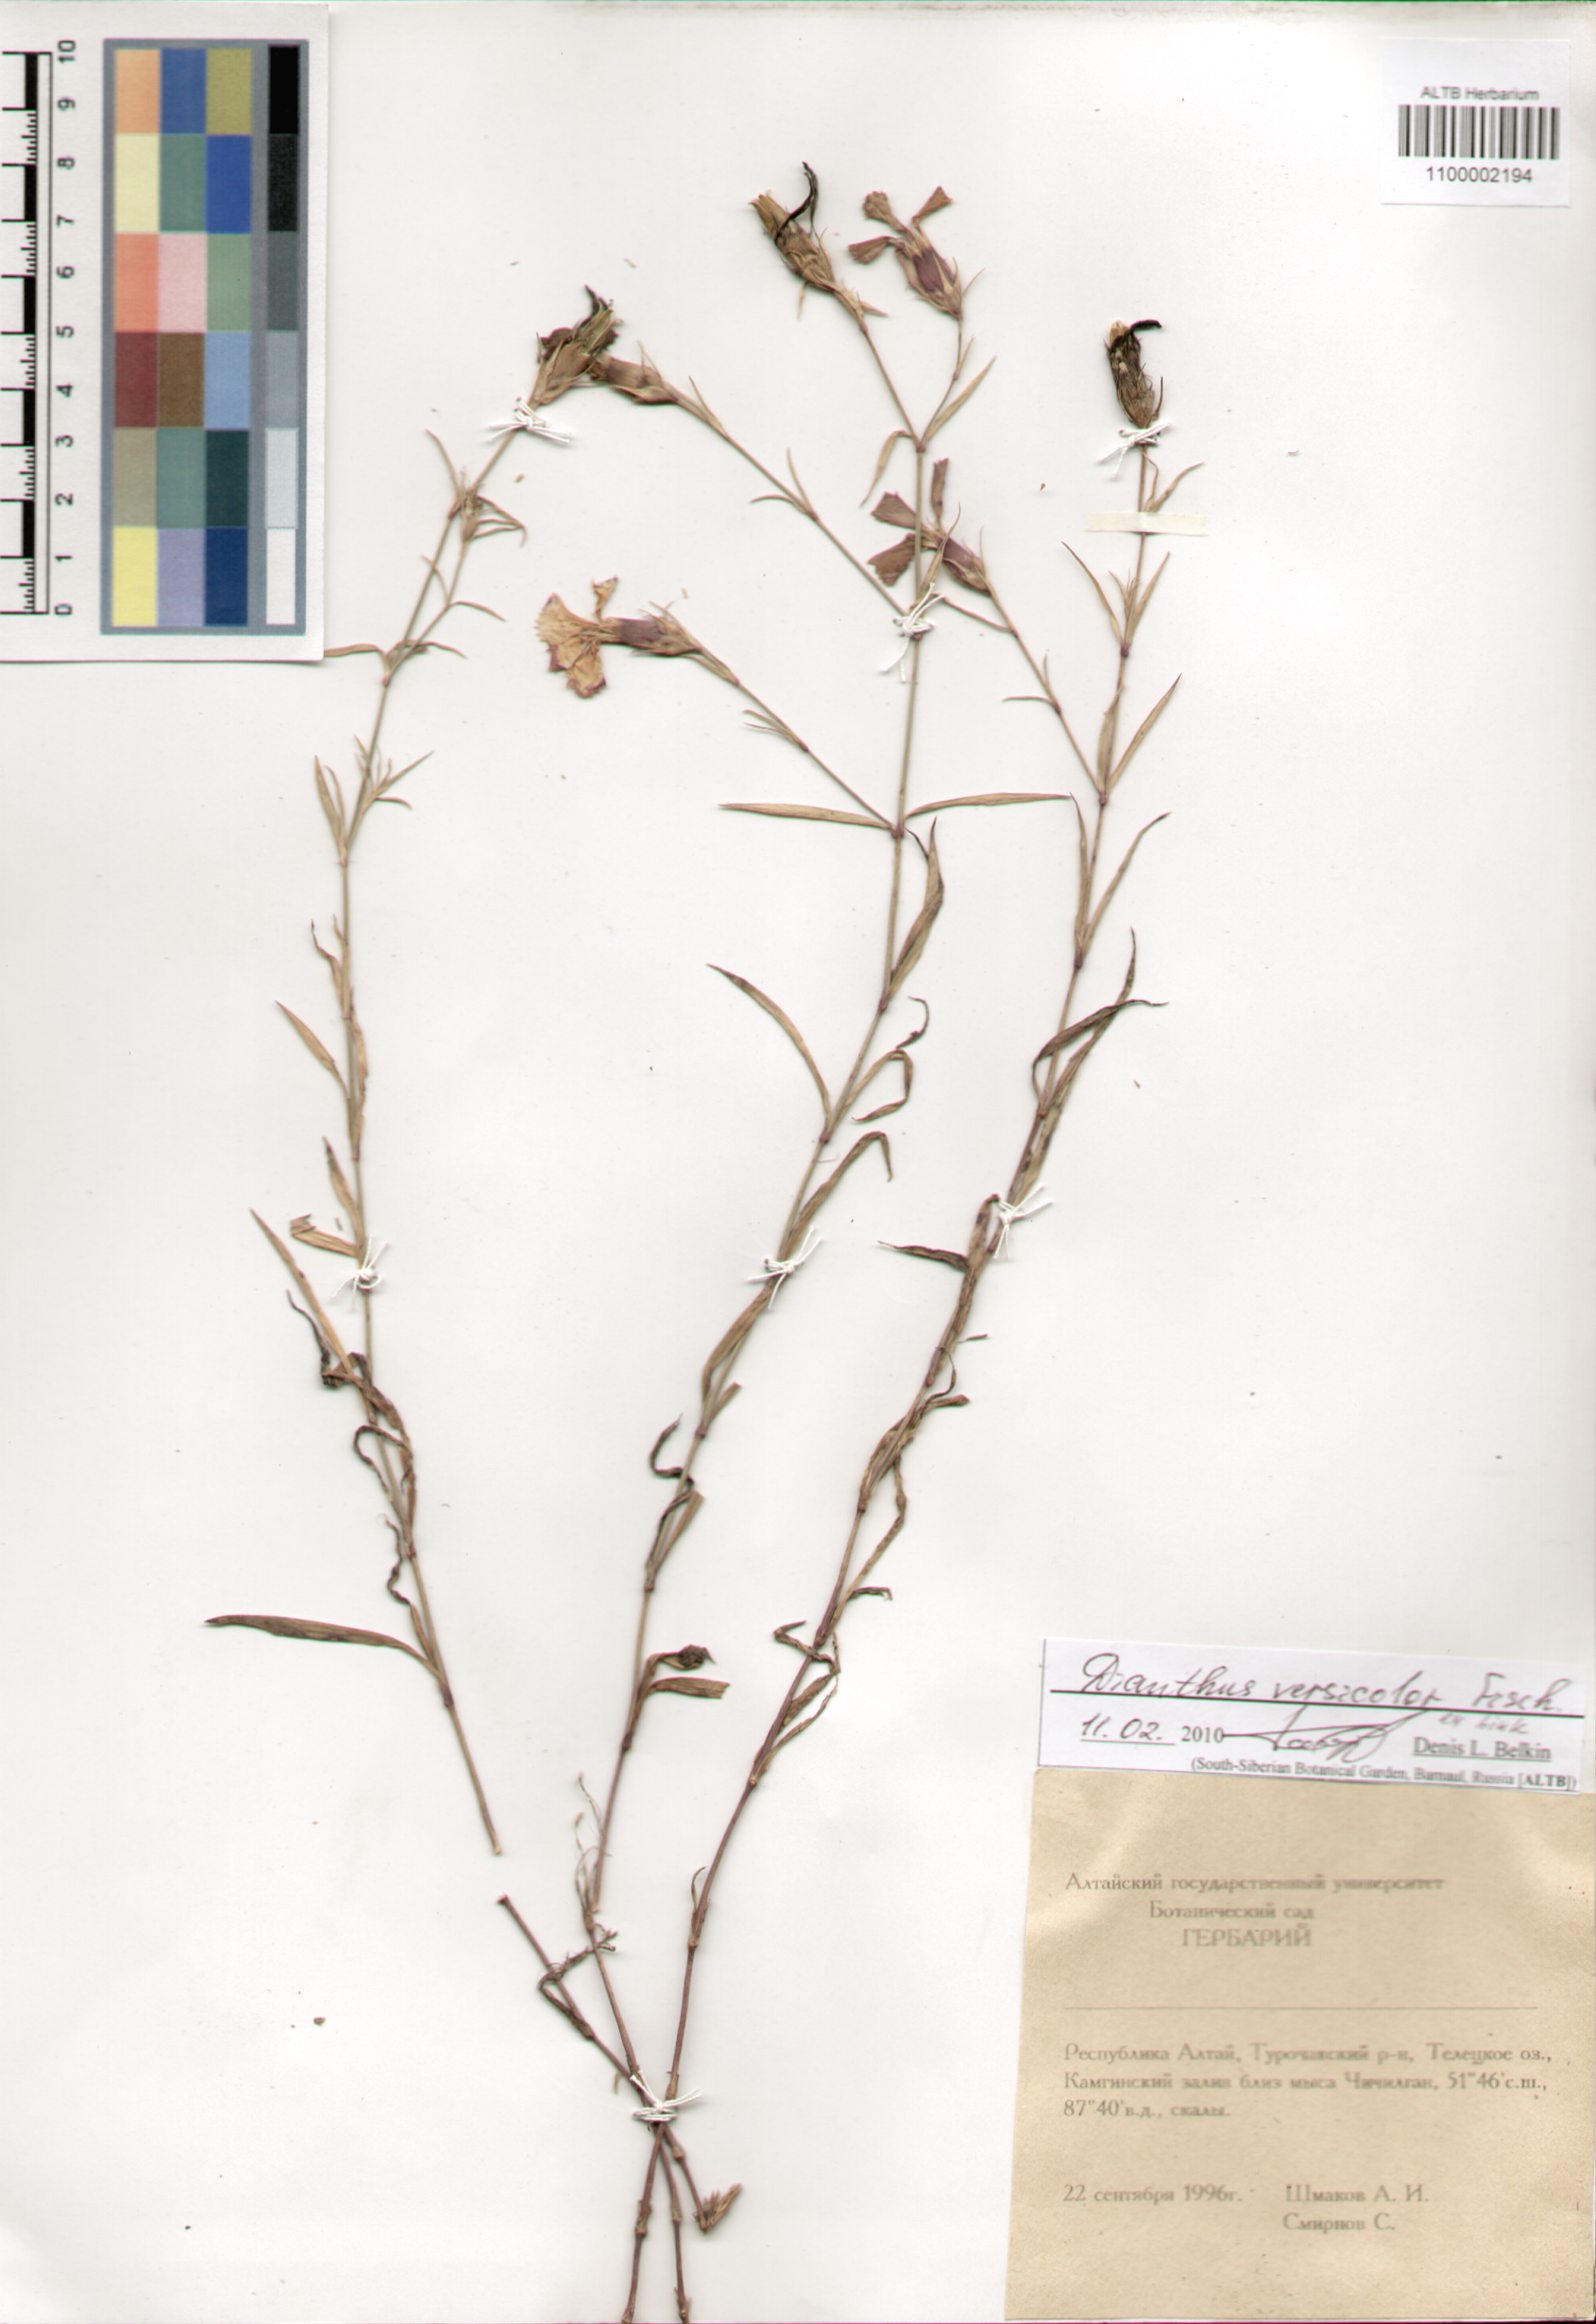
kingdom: Plantae
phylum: Tracheophyta
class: Magnoliopsida
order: Caryophyllales
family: Caryophyllaceae
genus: Dianthus
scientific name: Dianthus chinensis
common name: Rainbow pink
